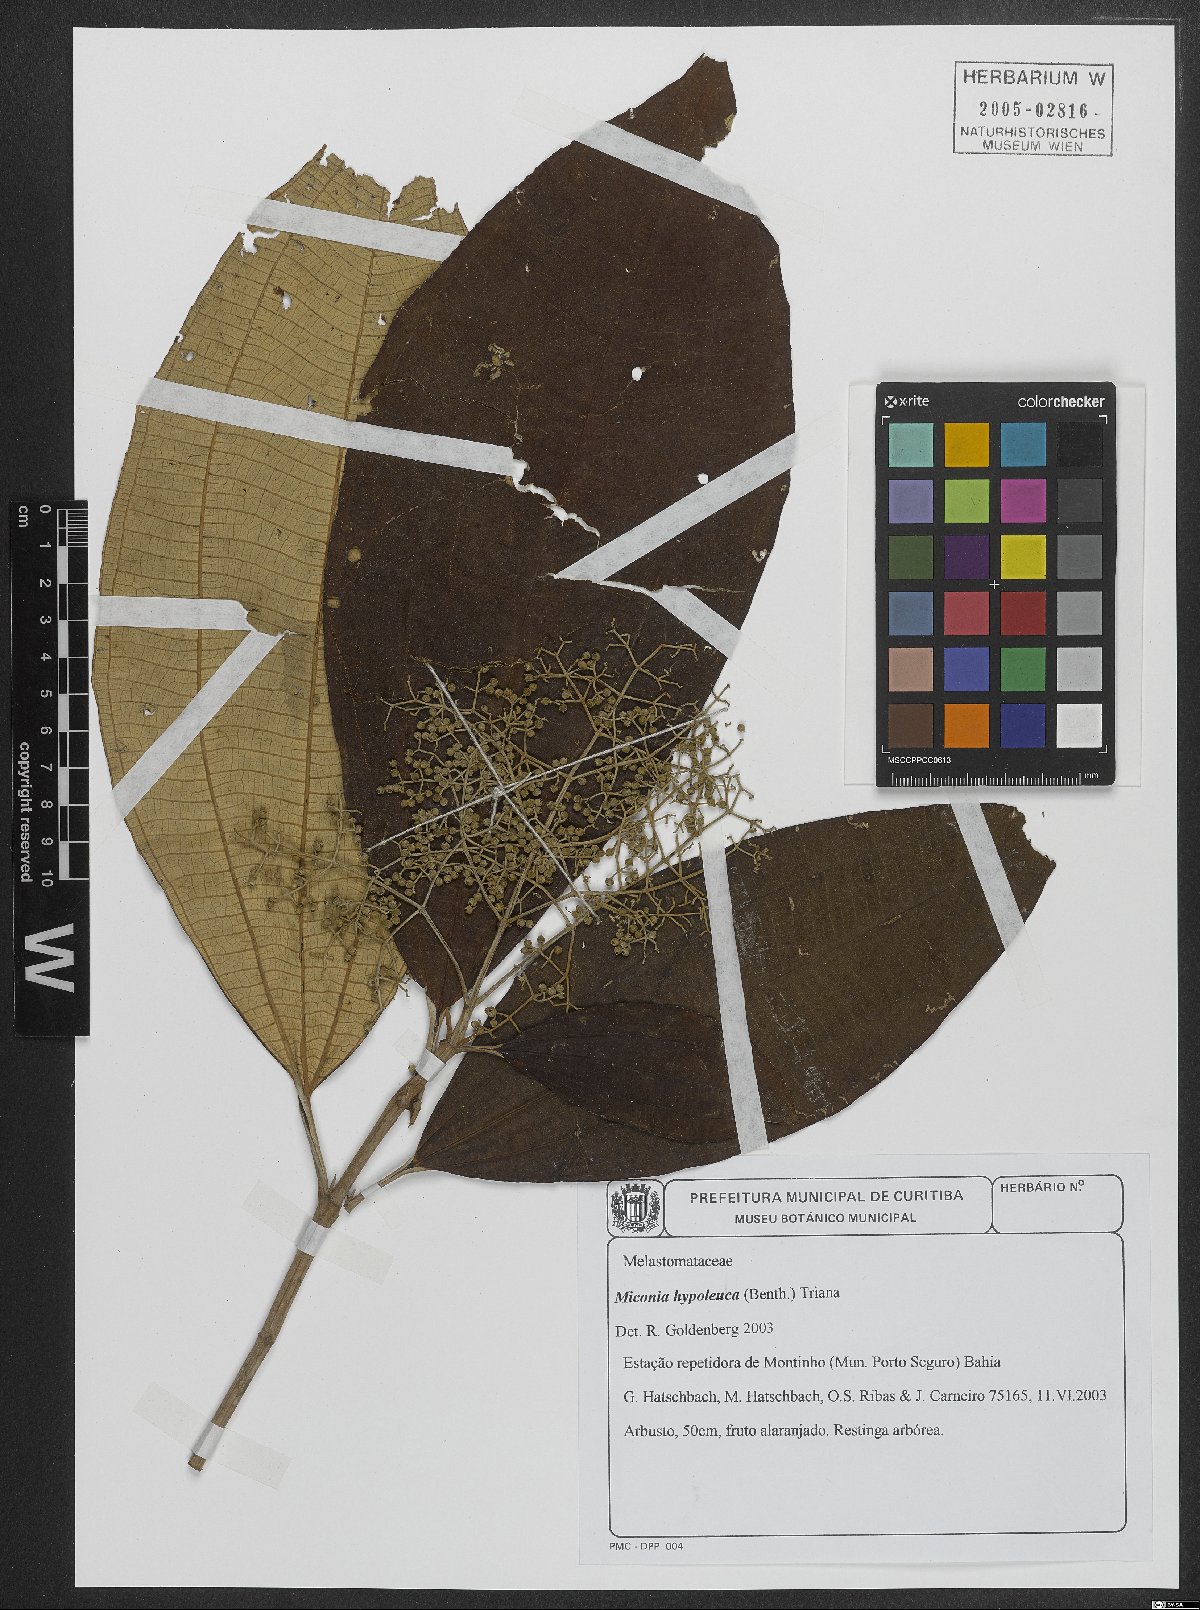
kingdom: Plantae
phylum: Tracheophyta
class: Magnoliopsida
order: Myrtales
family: Melastomataceae
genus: Miconia
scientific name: Miconia hypoleuca
